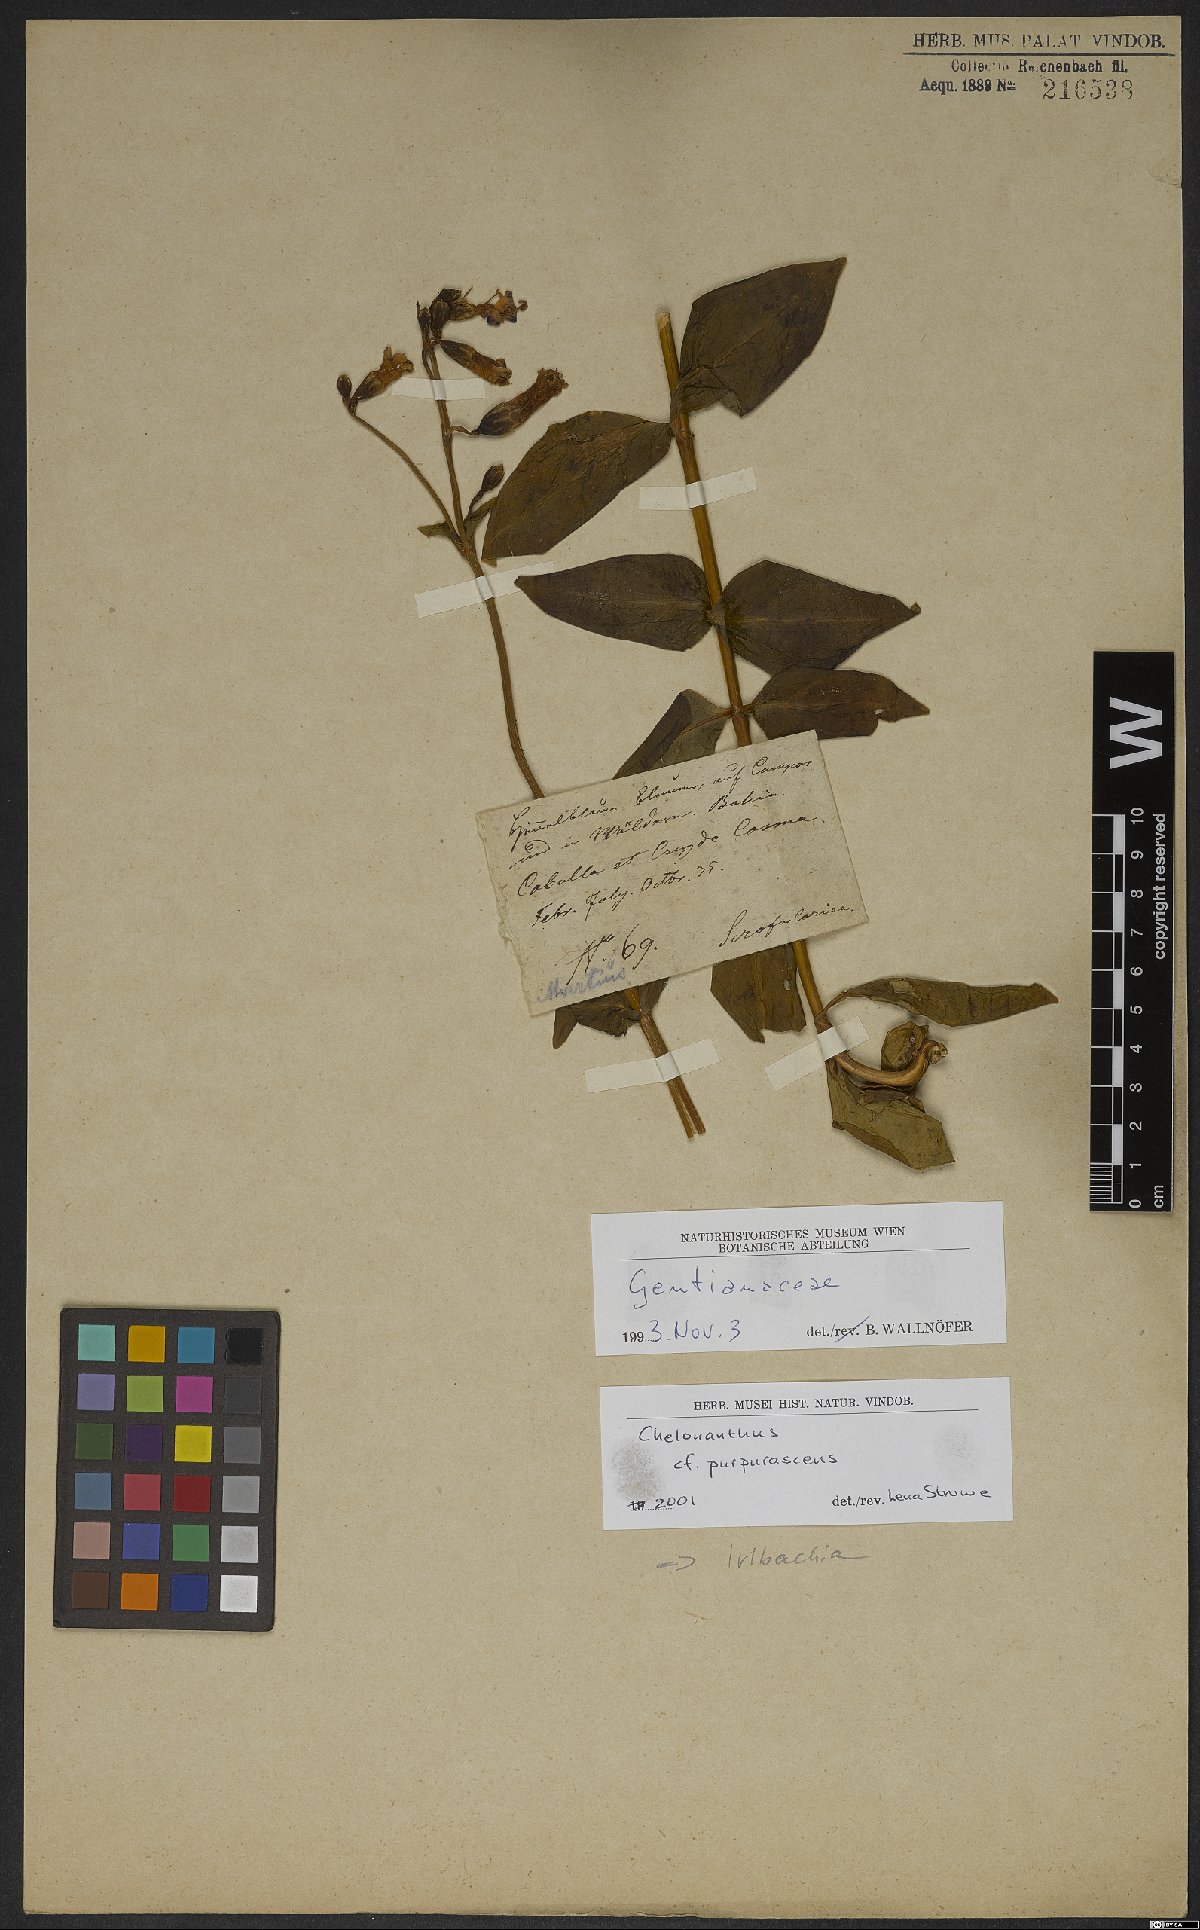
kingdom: Plantae
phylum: Tracheophyta
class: Magnoliopsida
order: Gentianales
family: Gentianaceae
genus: Chelonanthus
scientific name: Chelonanthus purpurascens
